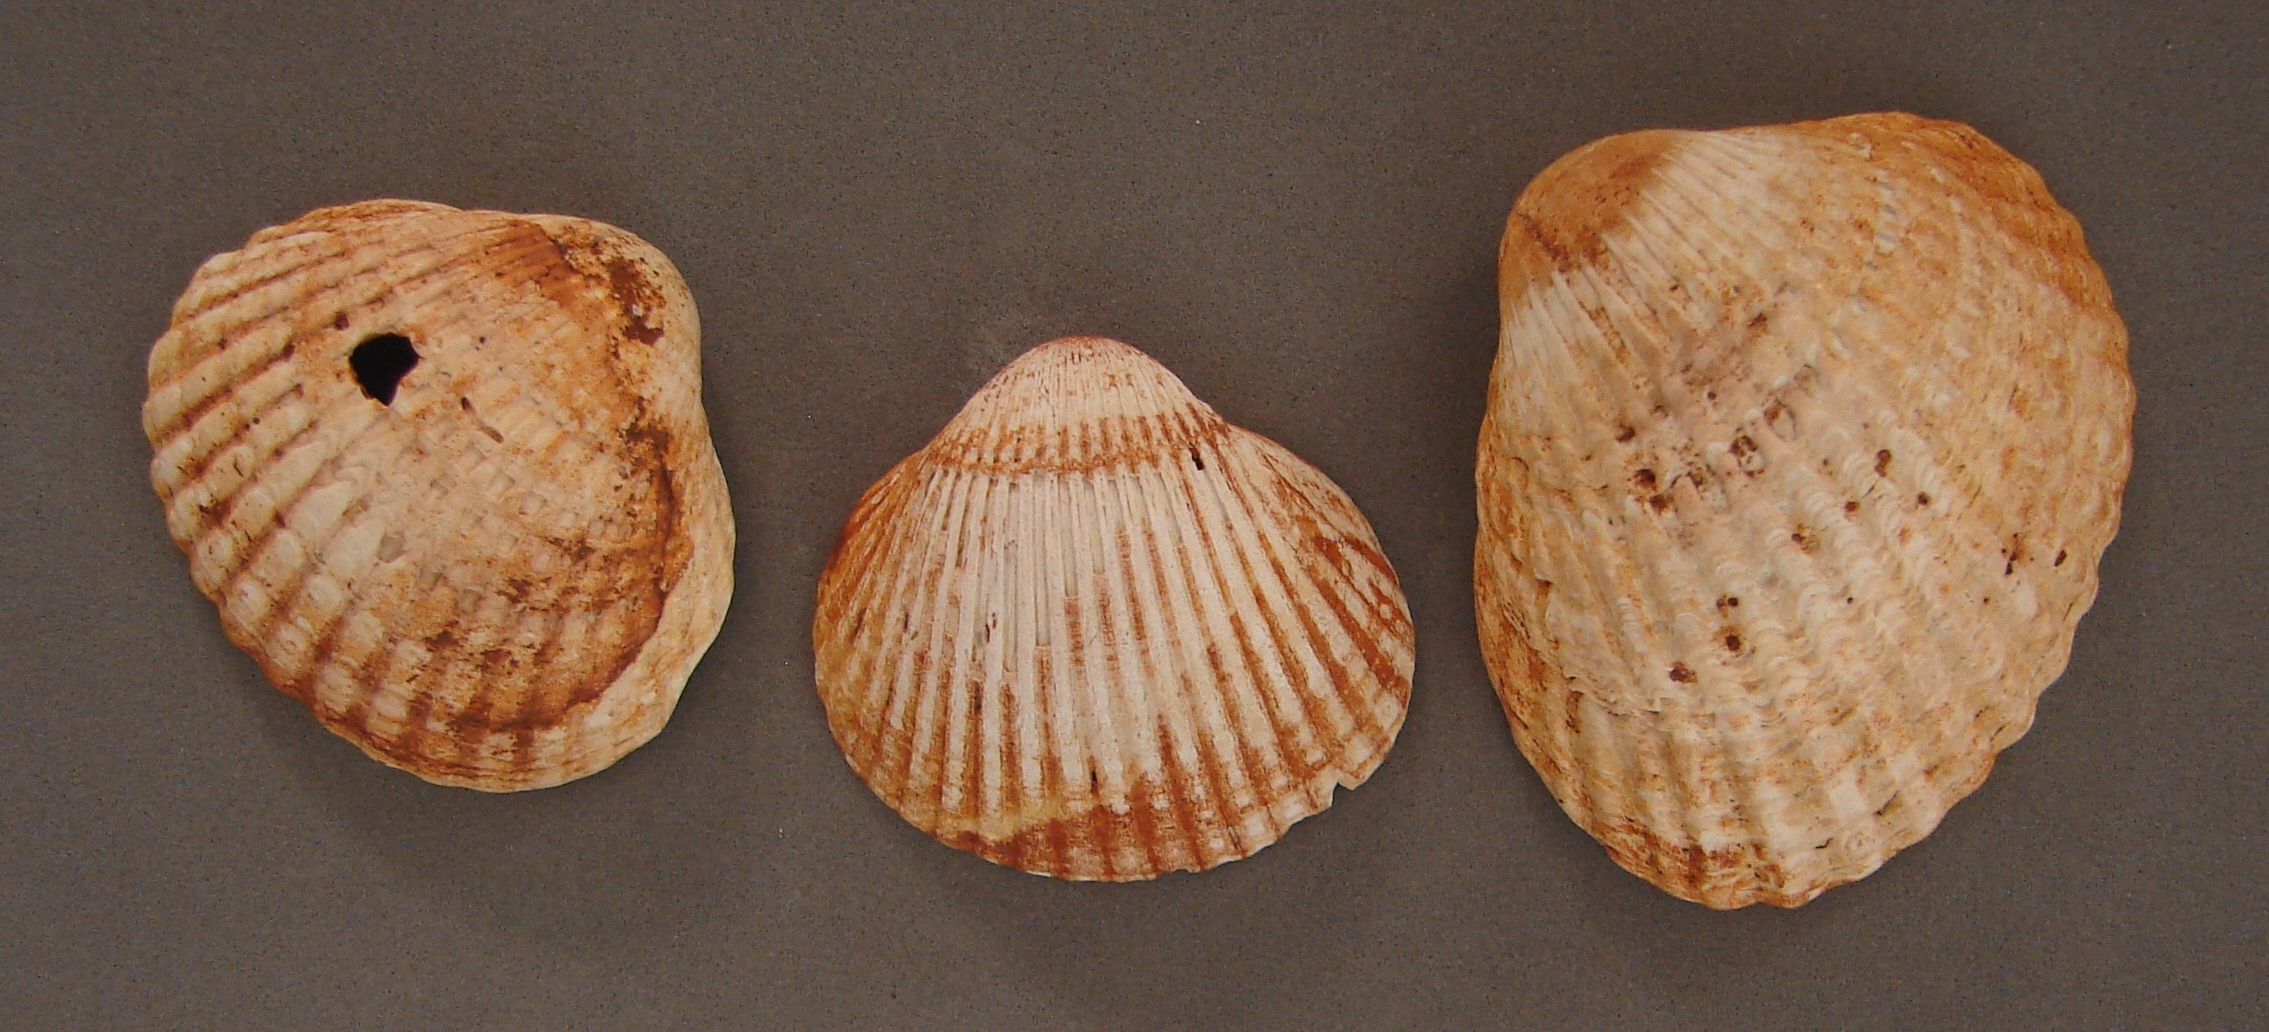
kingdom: Animalia
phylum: Mollusca
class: Bivalvia
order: Cardiida
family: Cardiidae
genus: Cardium
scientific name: Cardium
